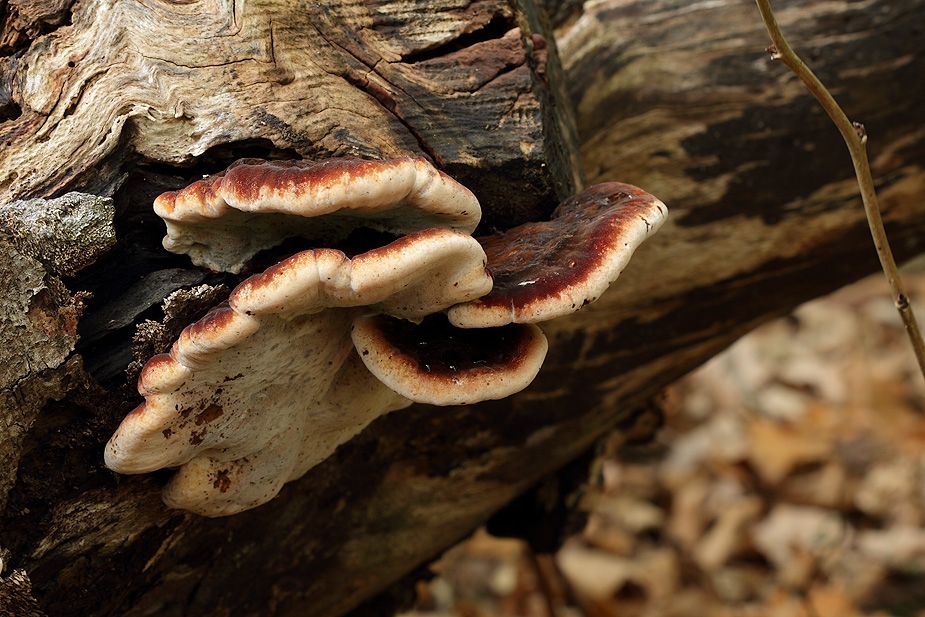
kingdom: Fungi
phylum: Basidiomycota
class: Agaricomycetes
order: Polyporales
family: Ischnodermataceae
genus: Ischnoderma
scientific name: Ischnoderma resinosum
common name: løv-tjæreporesvamp
